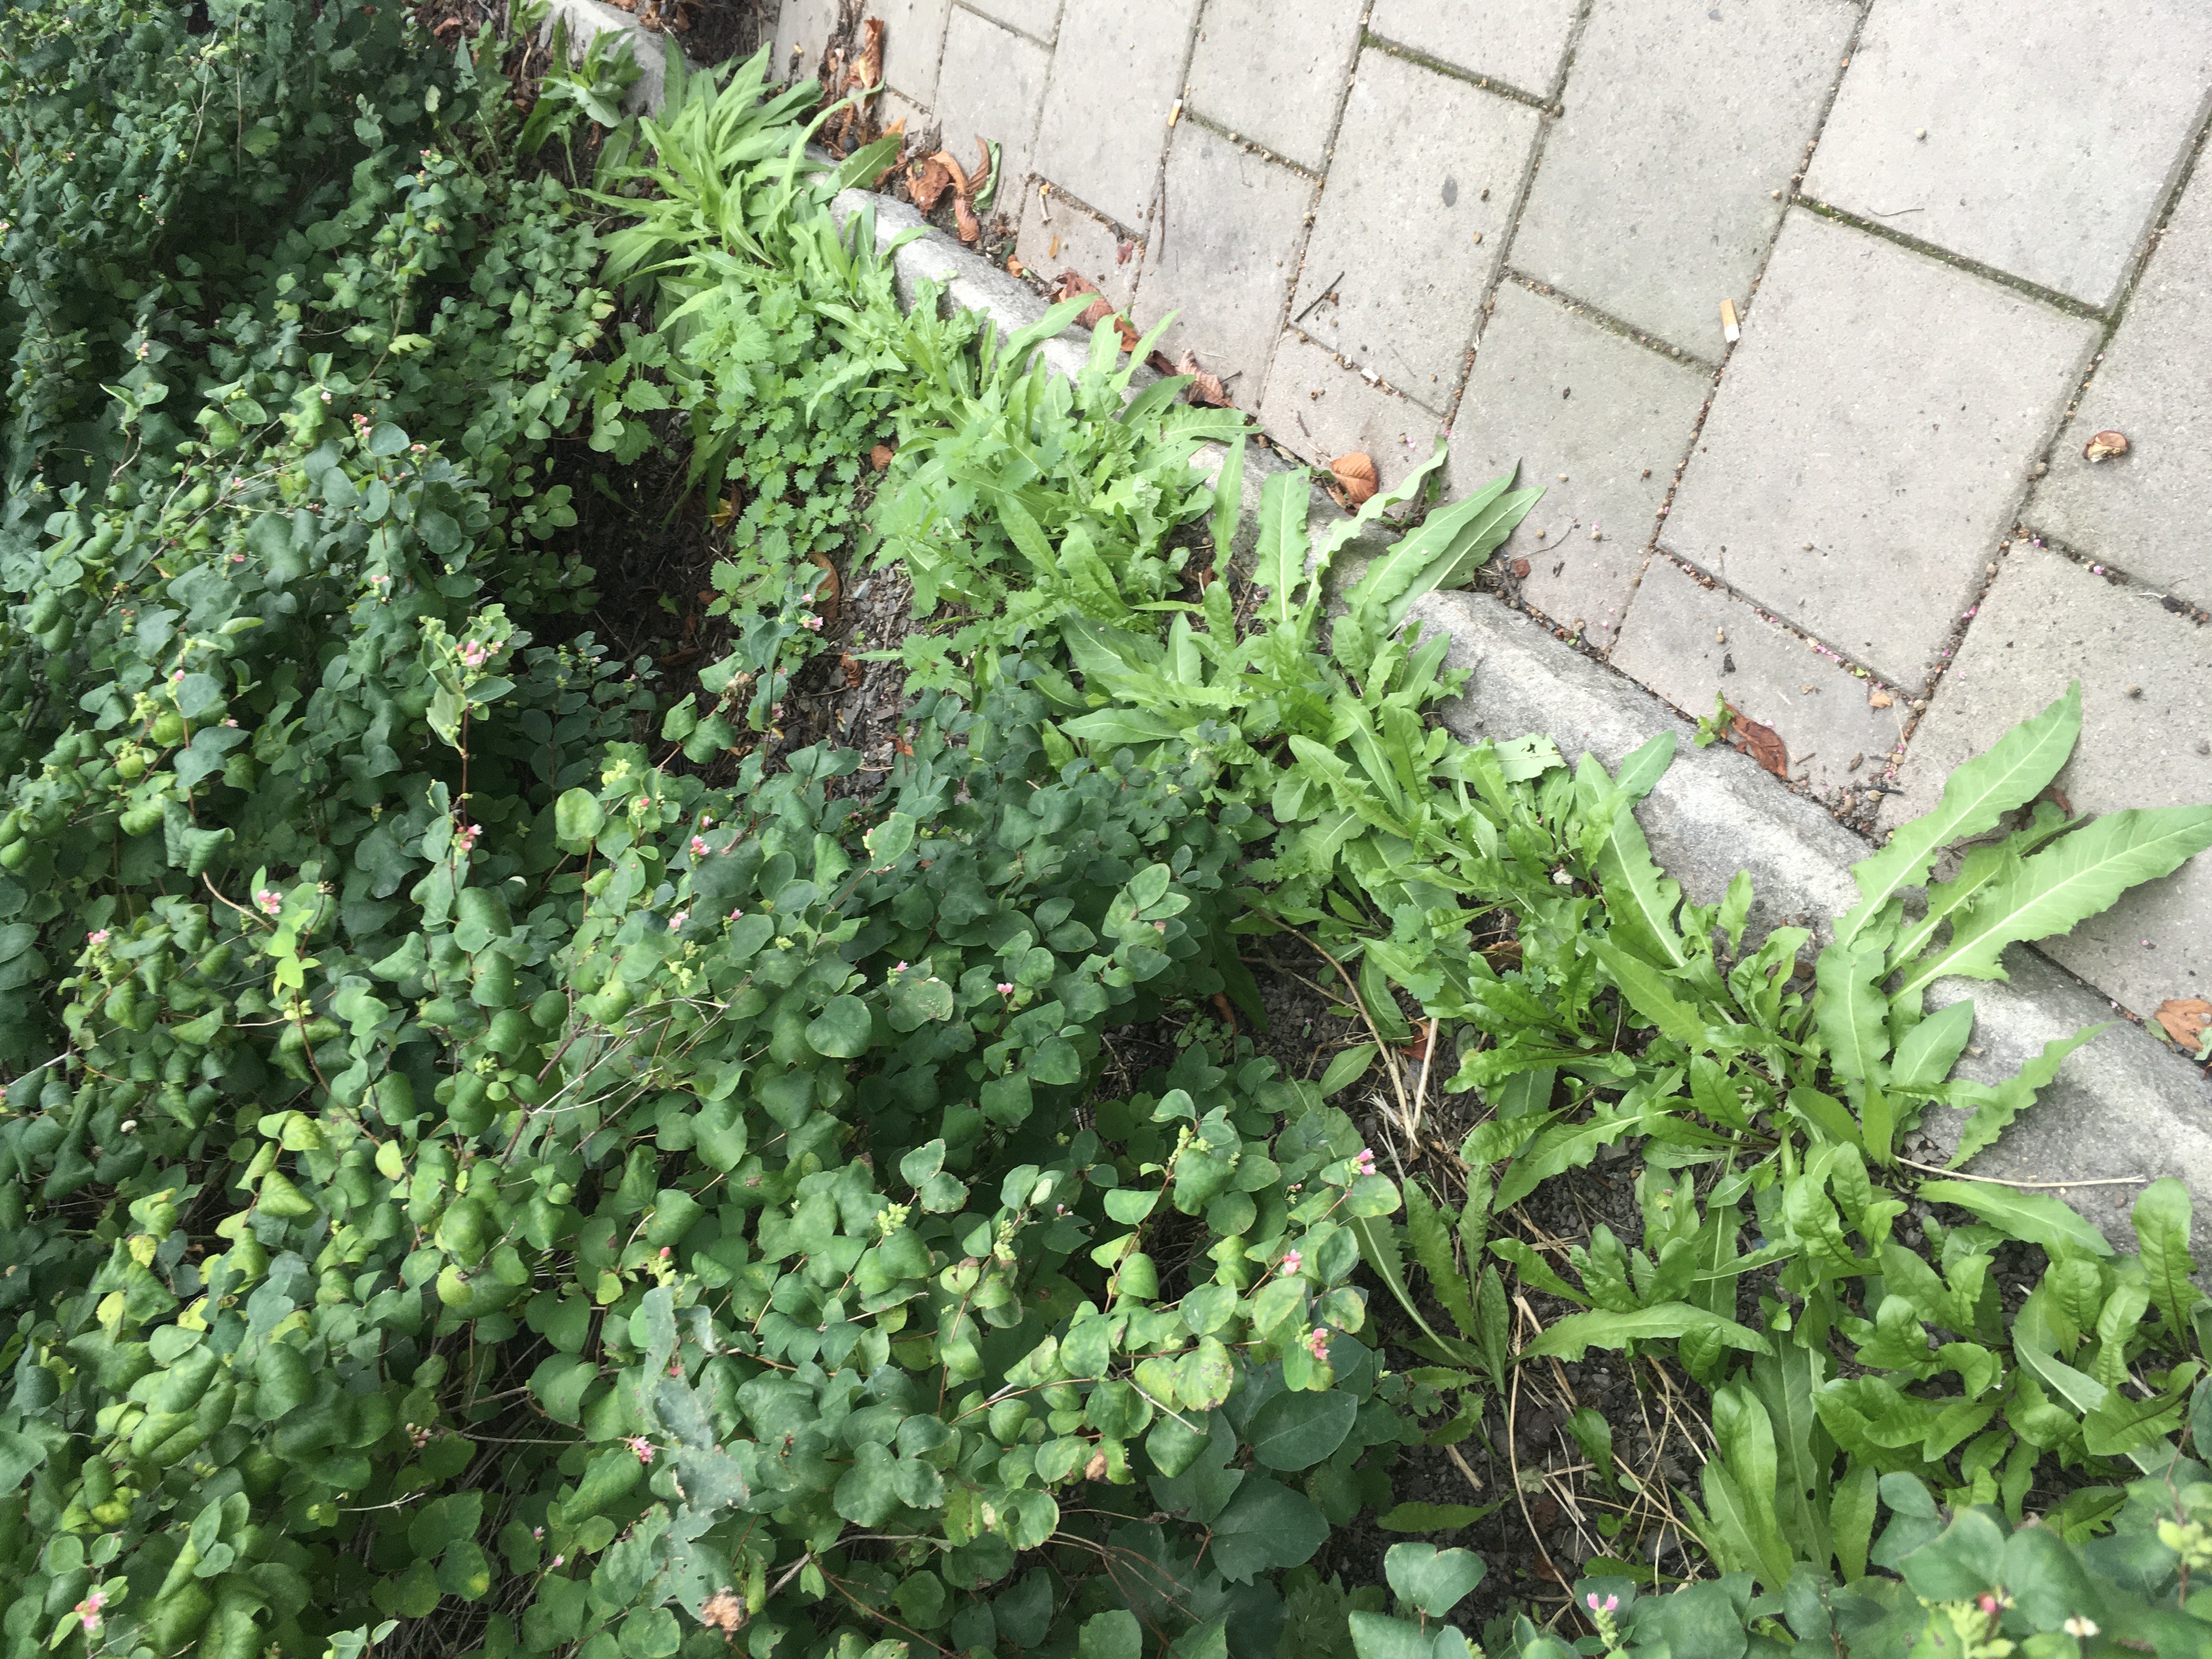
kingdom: Plantae
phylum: Tracheophyta
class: Magnoliopsida
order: Brassicales
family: Brassicaceae
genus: Bunias
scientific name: Bunias orientalis
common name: russekål
